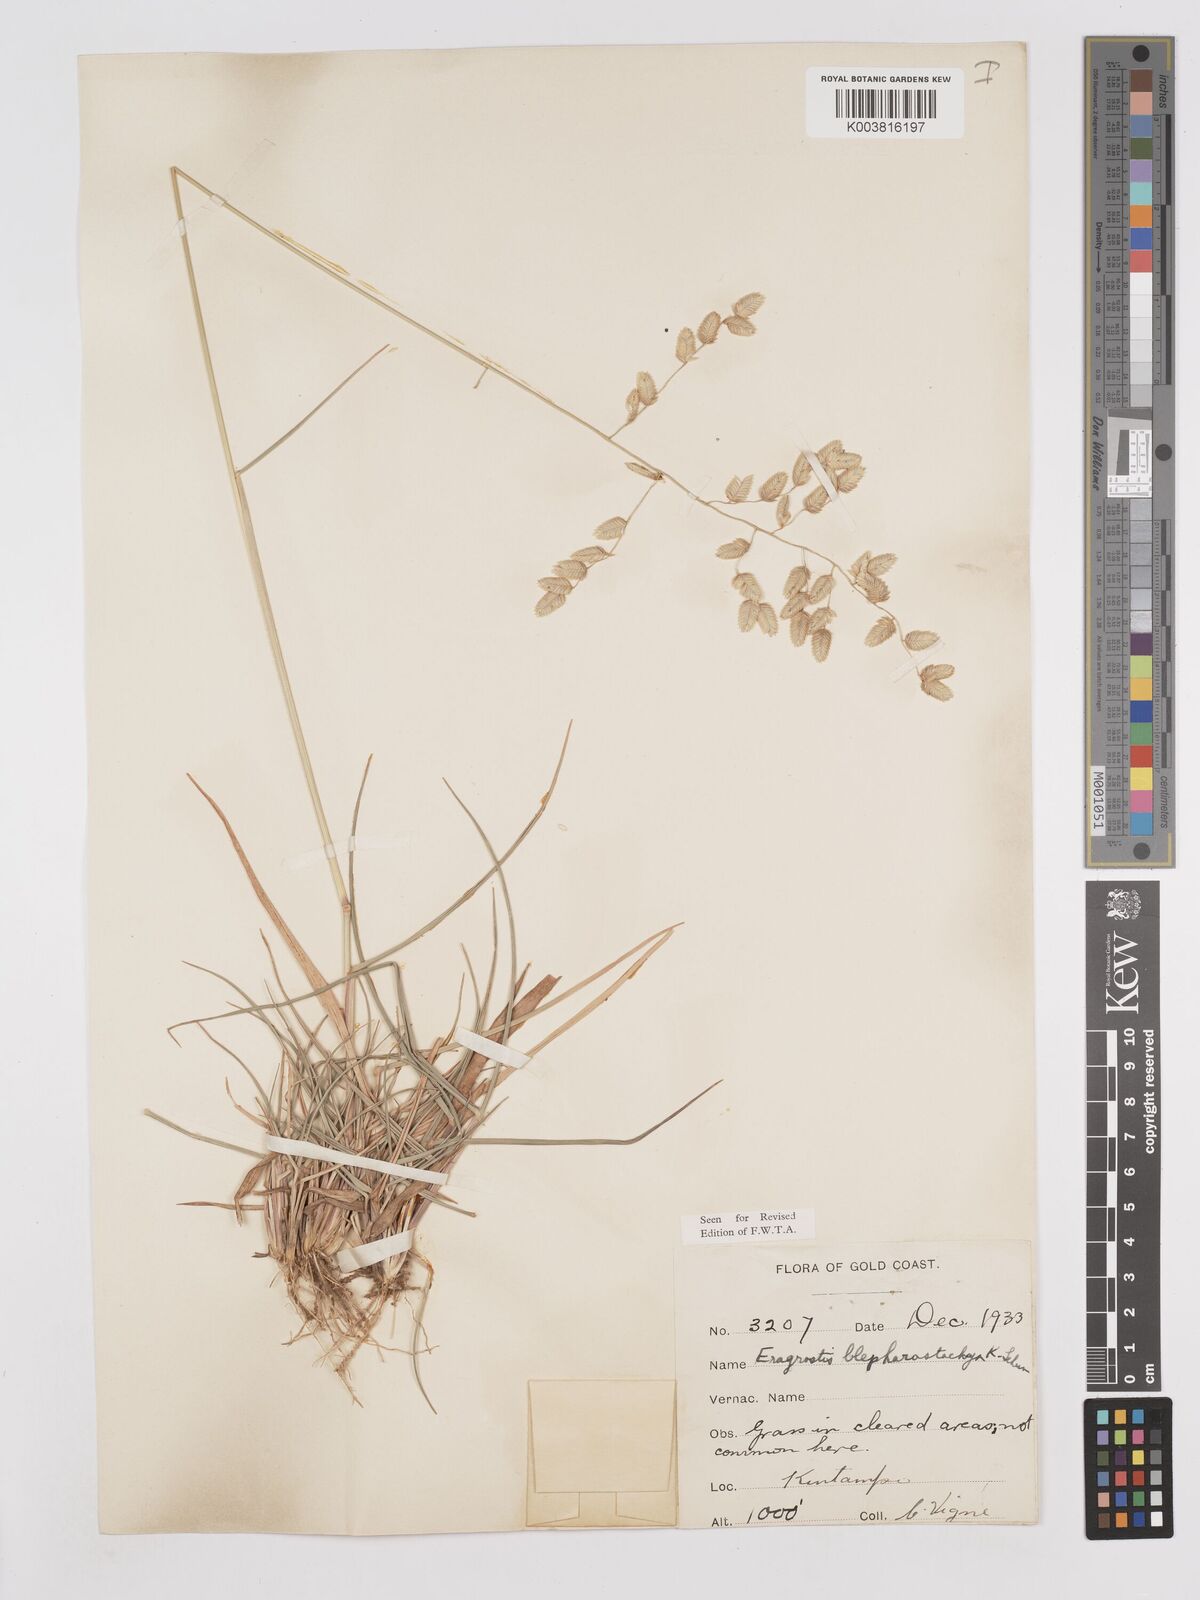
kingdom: Plantae
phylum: Tracheophyta
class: Liliopsida
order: Poales
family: Poaceae
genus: Eragrostis
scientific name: Eragrostis blepharostachya
